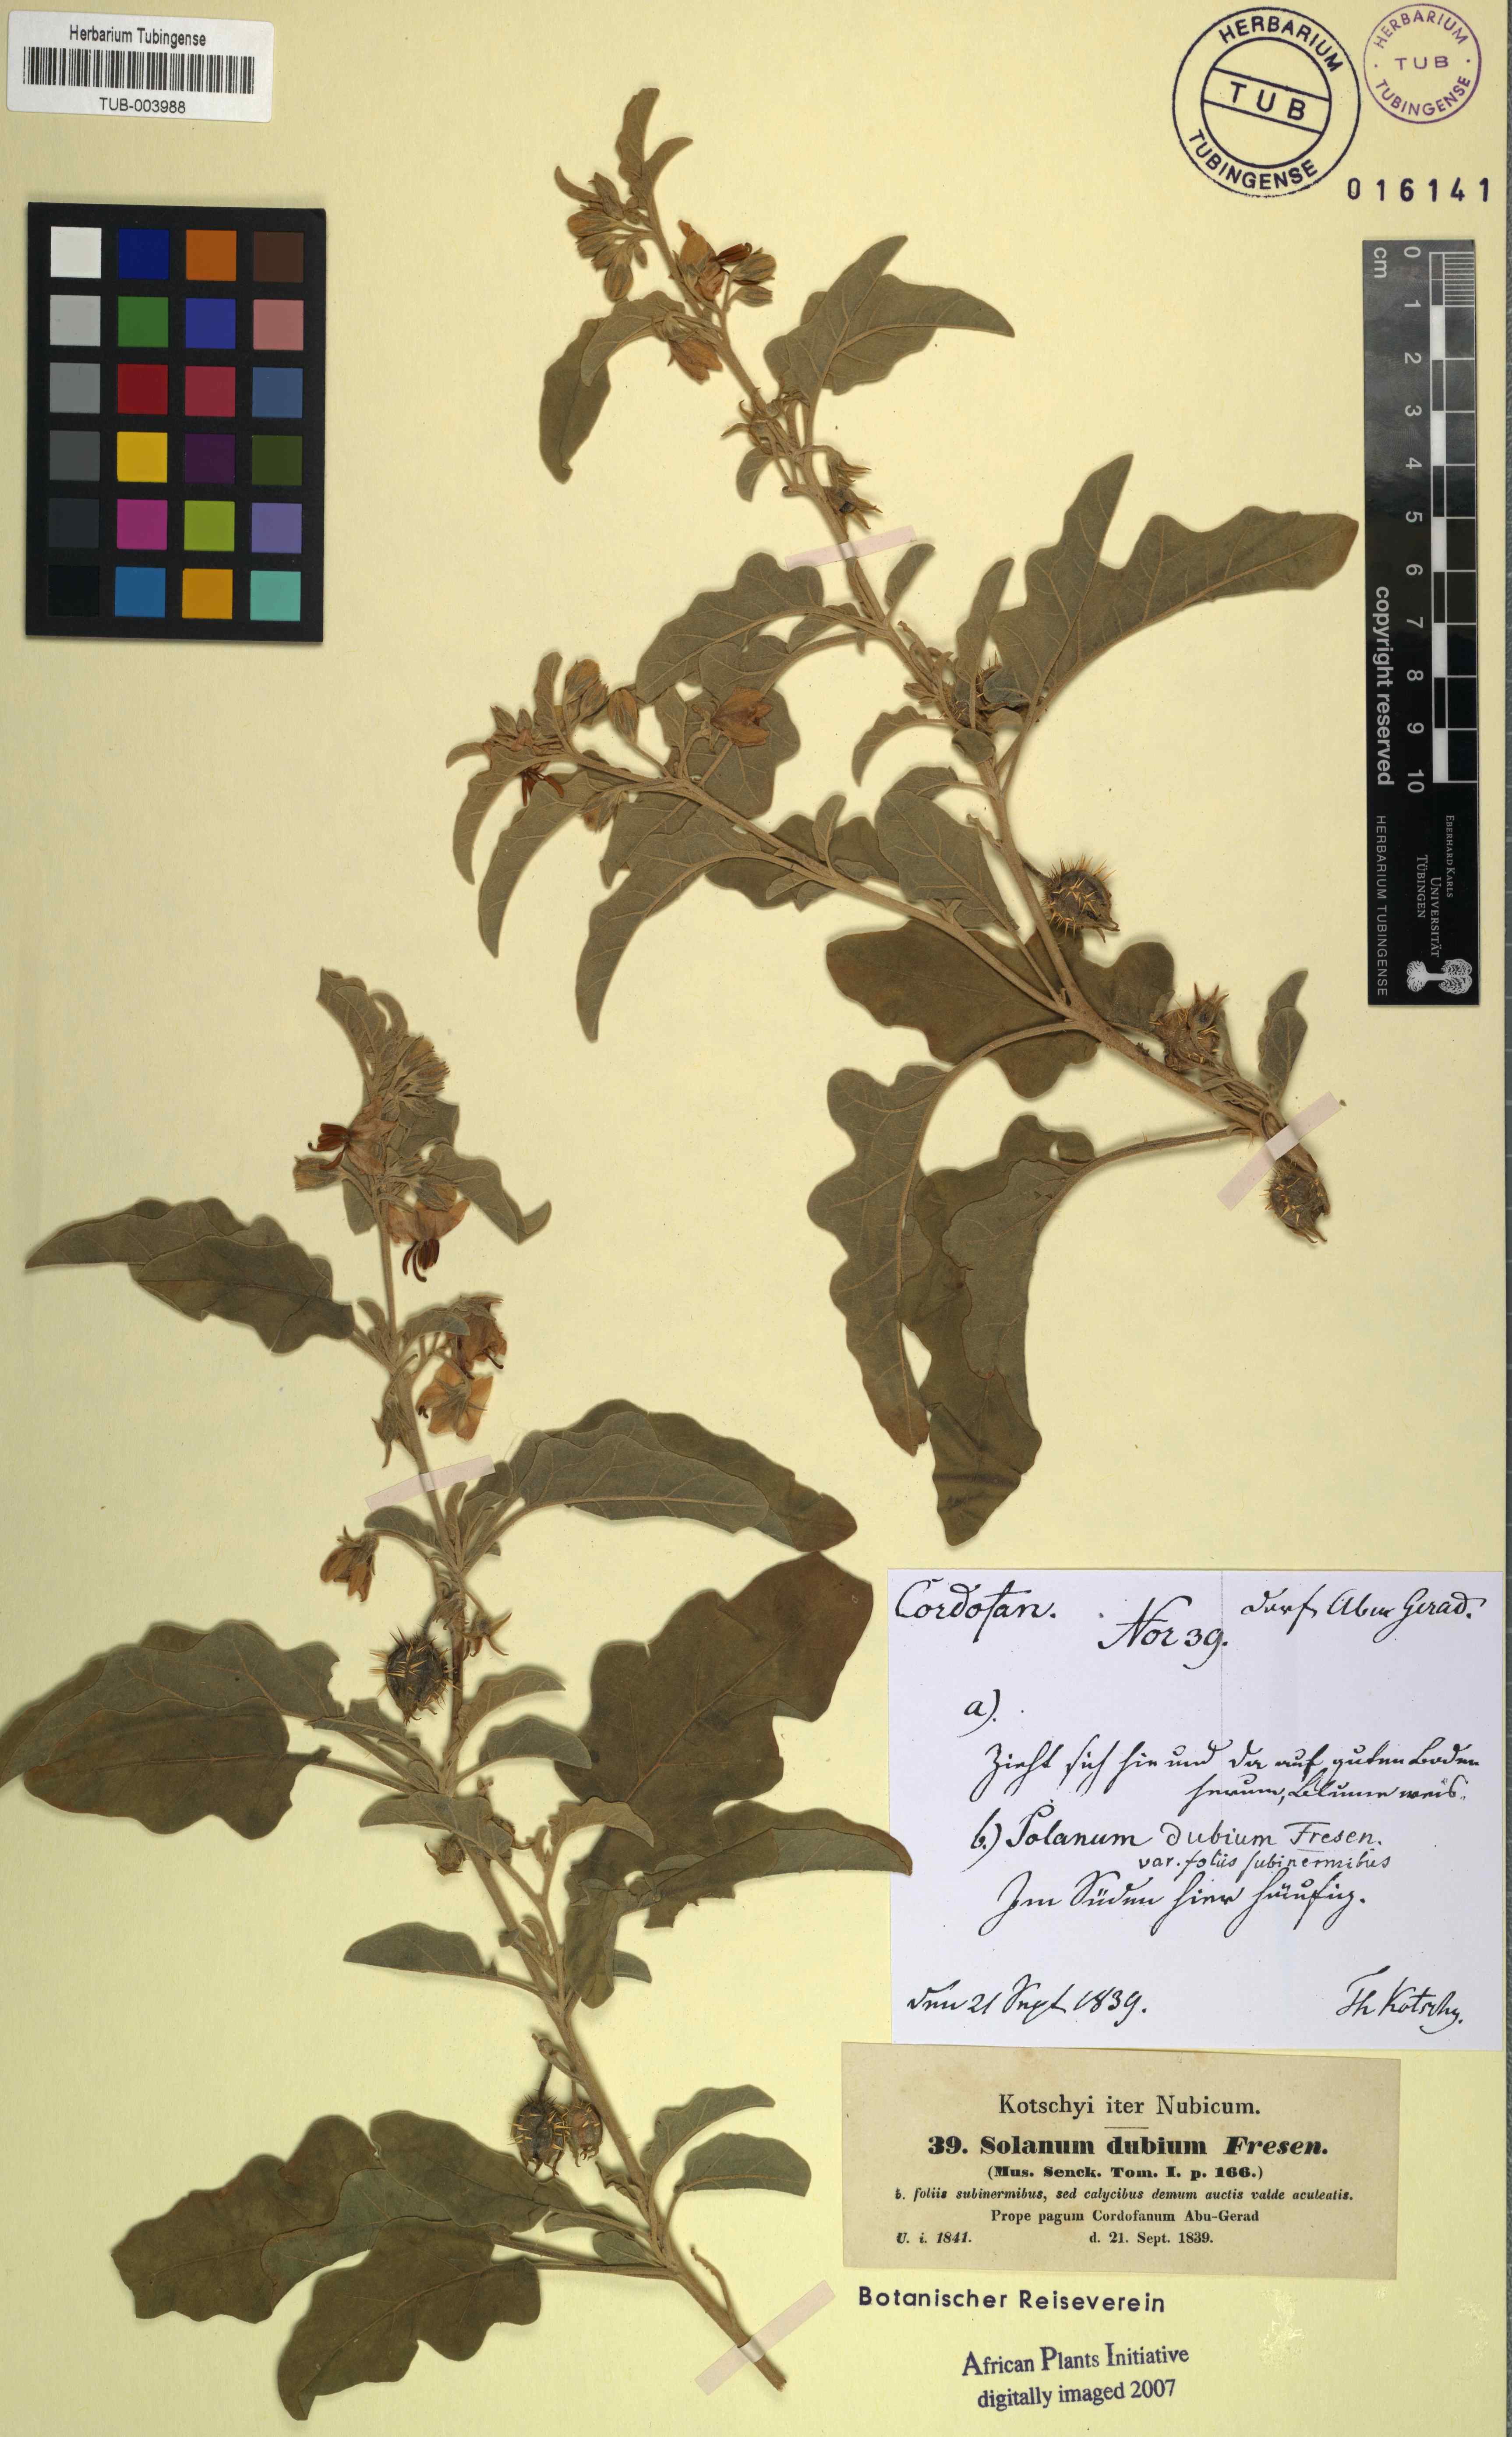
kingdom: Plantae
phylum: Tracheophyta
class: Magnoliopsida
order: Solanales
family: Solanaceae
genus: Solanum
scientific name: Solanum coagulans
